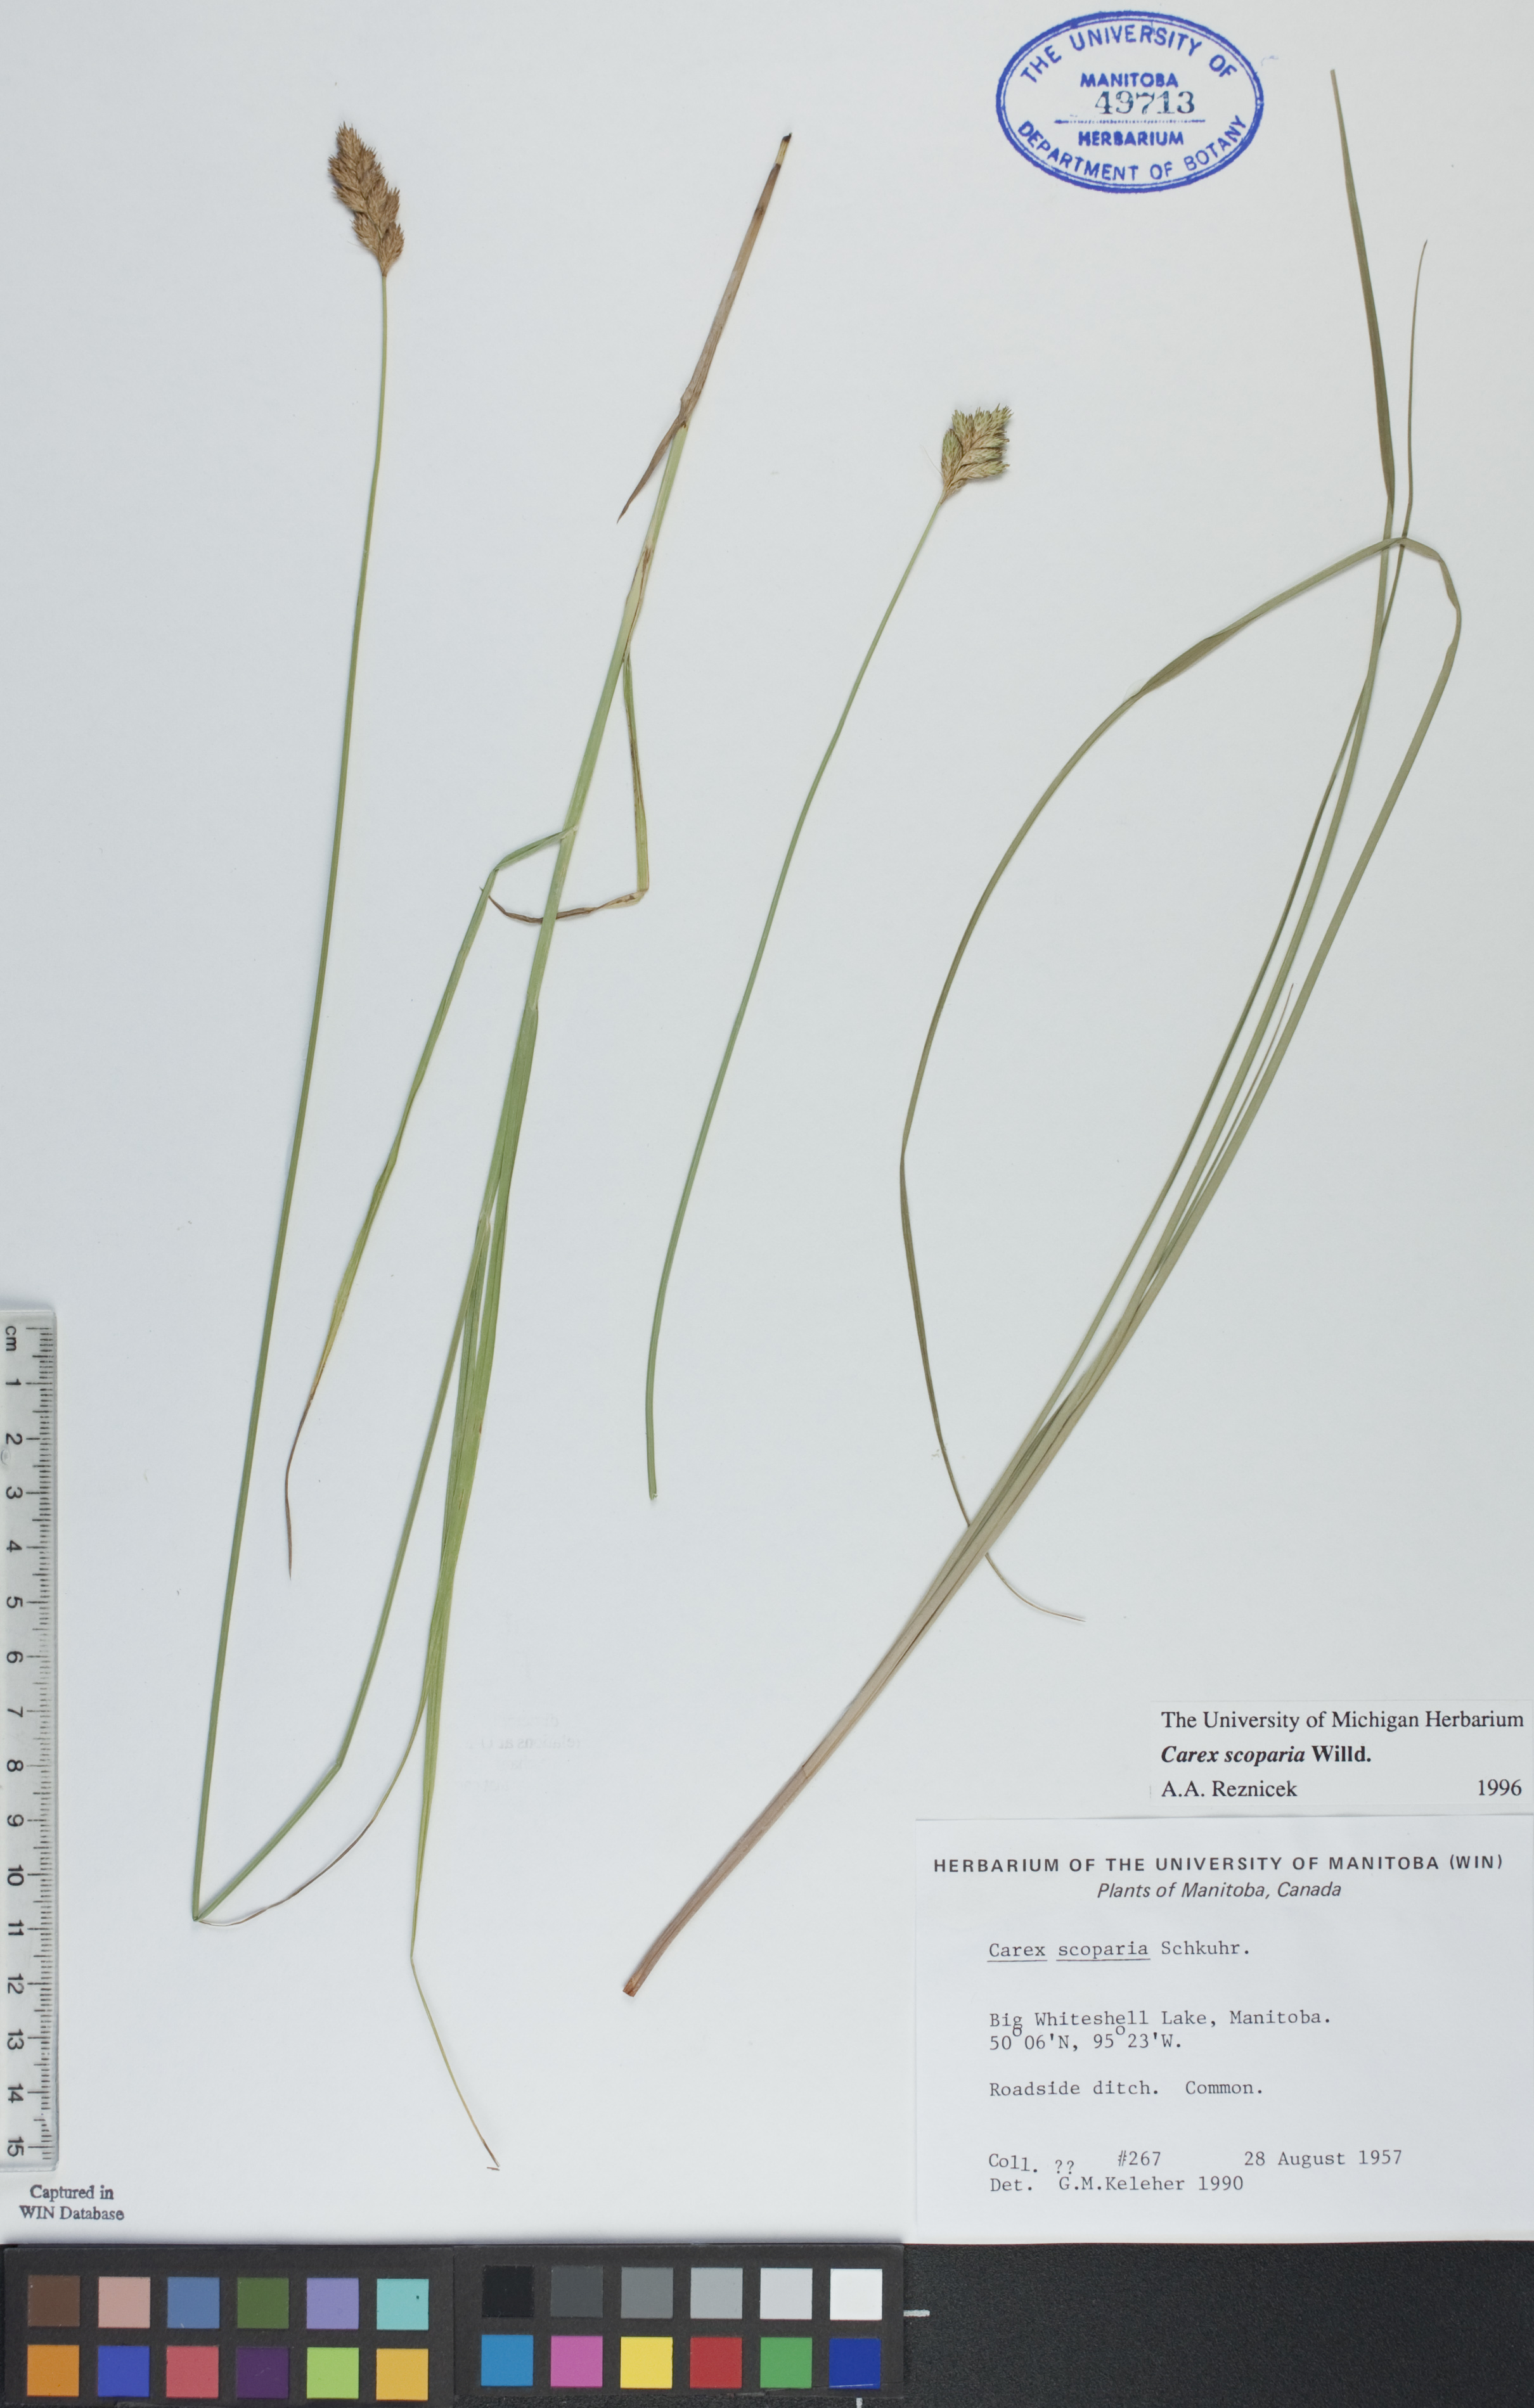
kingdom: Plantae
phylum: Tracheophyta
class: Liliopsida
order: Poales
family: Cyperaceae
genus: Carex
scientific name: Carex scoparia
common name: Broom sedge
